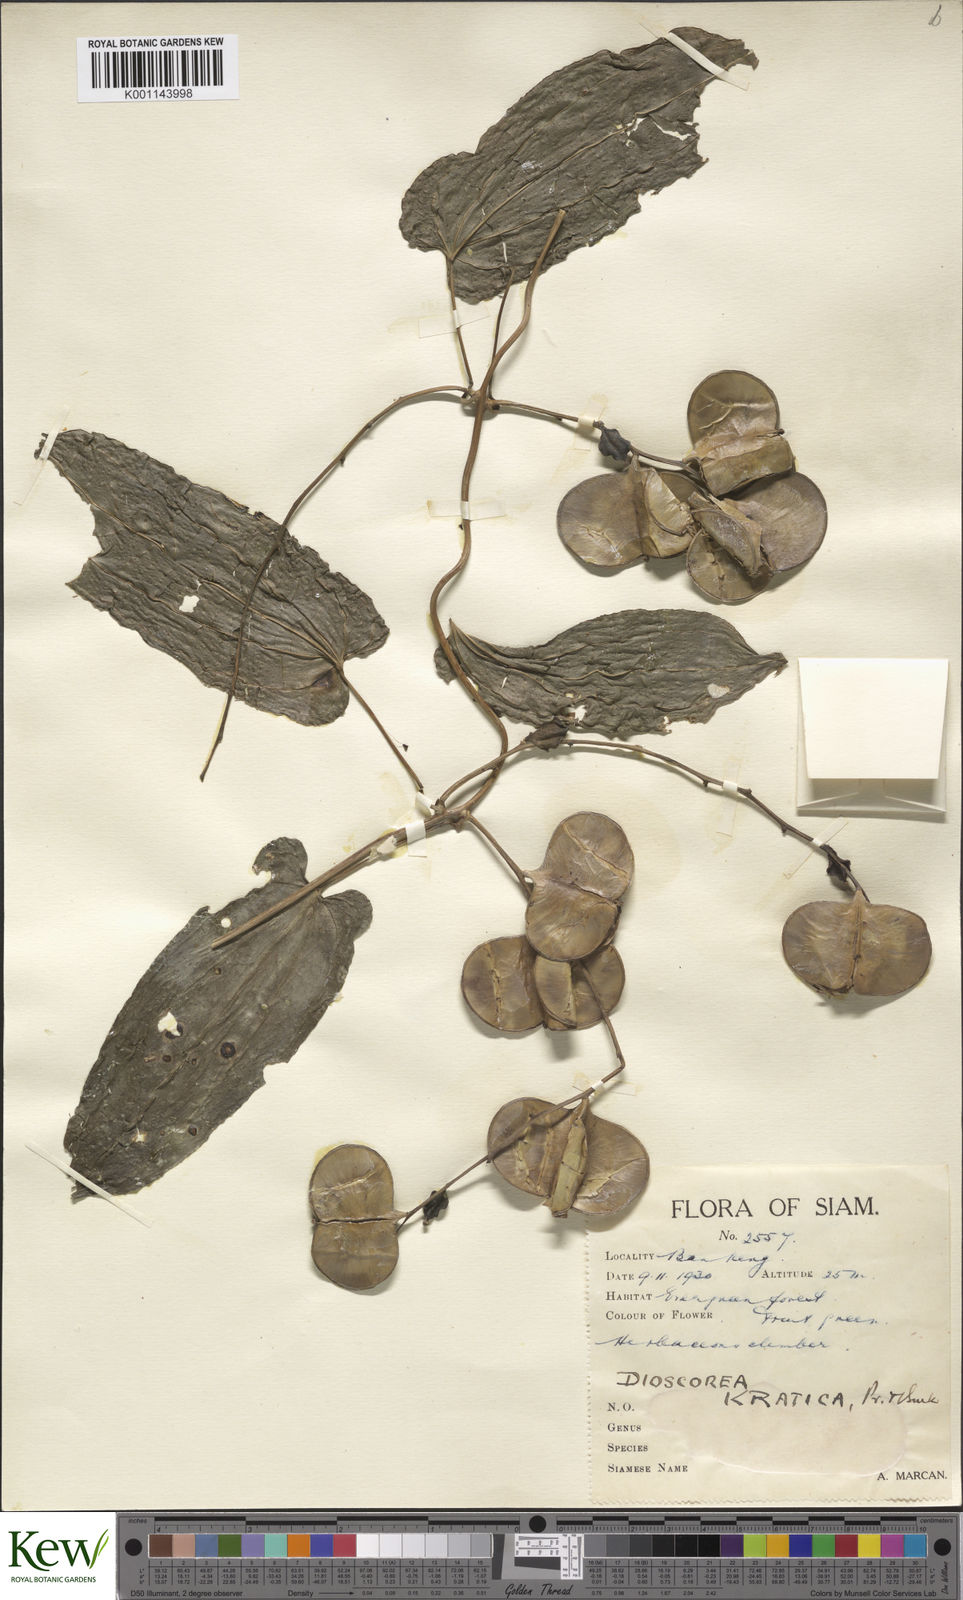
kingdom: Plantae
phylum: Tracheophyta
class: Liliopsida
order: Dioscoreales
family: Dioscoreaceae
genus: Dioscorea
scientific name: Dioscorea kratica
